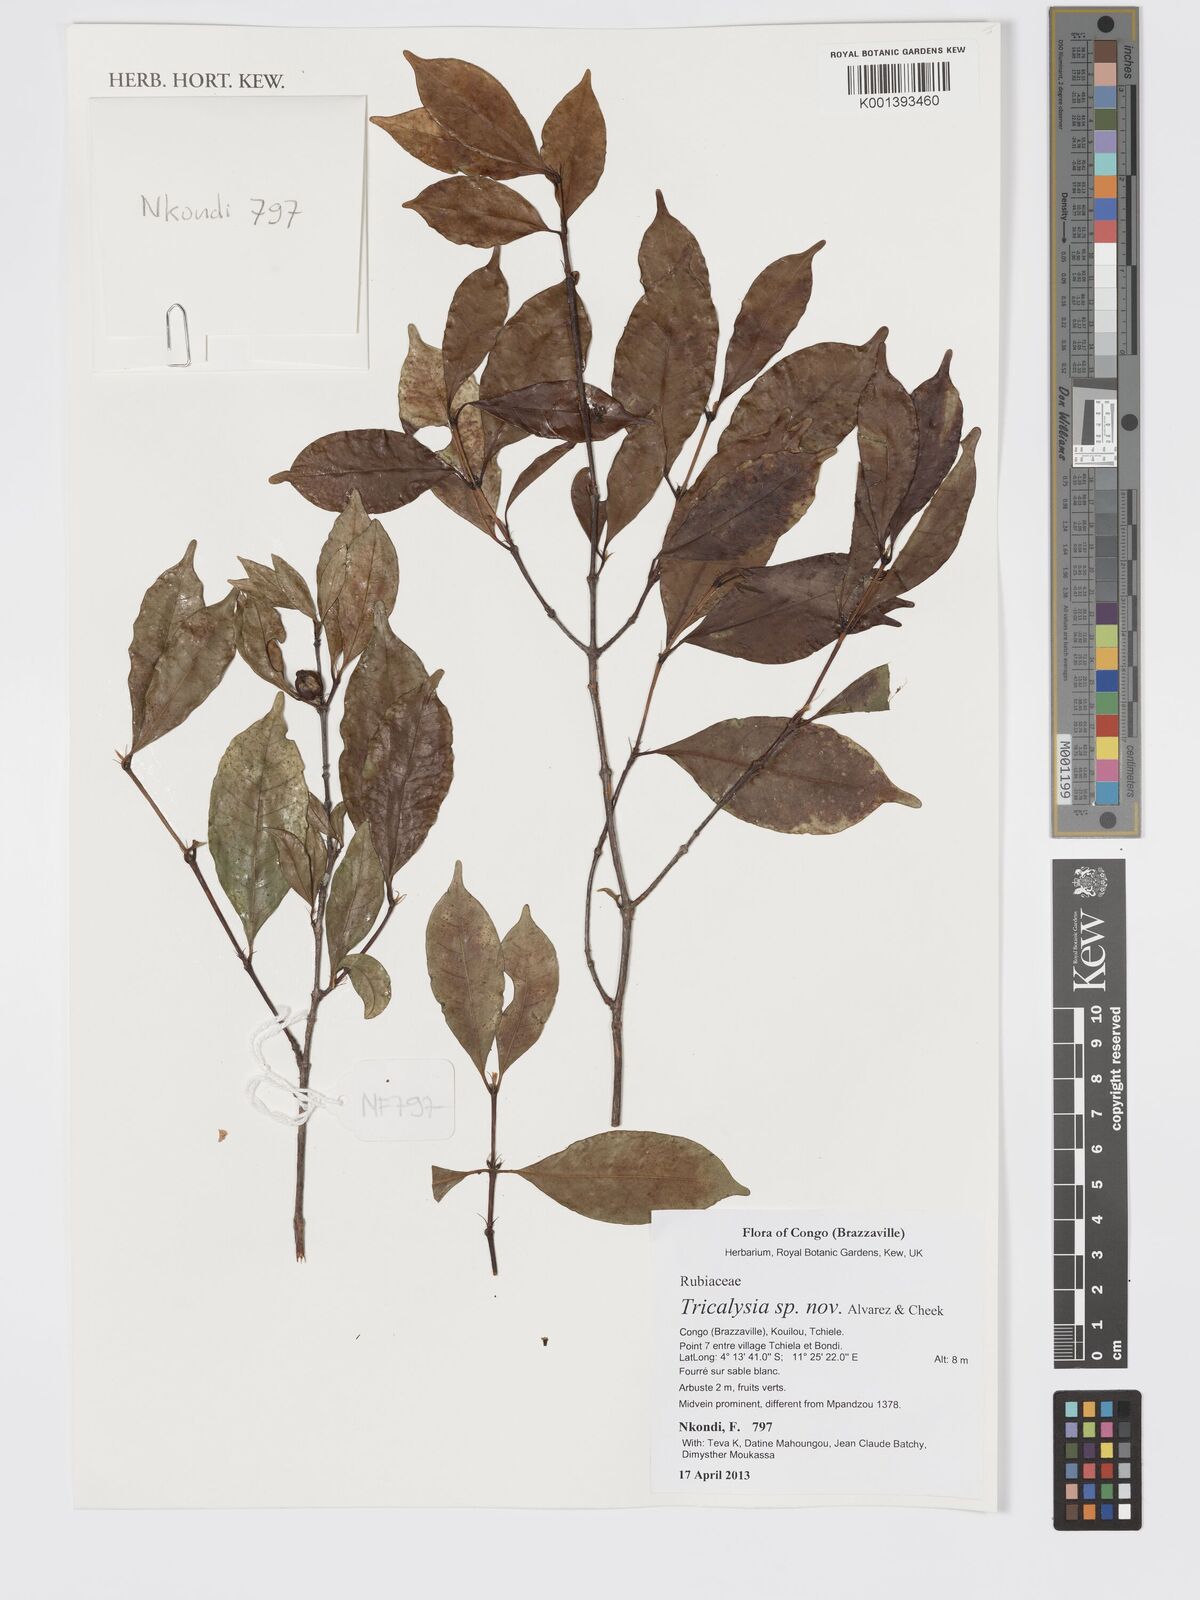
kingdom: Plantae
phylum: Tracheophyta
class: Magnoliopsida
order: Gentianales
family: Rubiaceae
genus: Tricalysia
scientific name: Tricalysia
